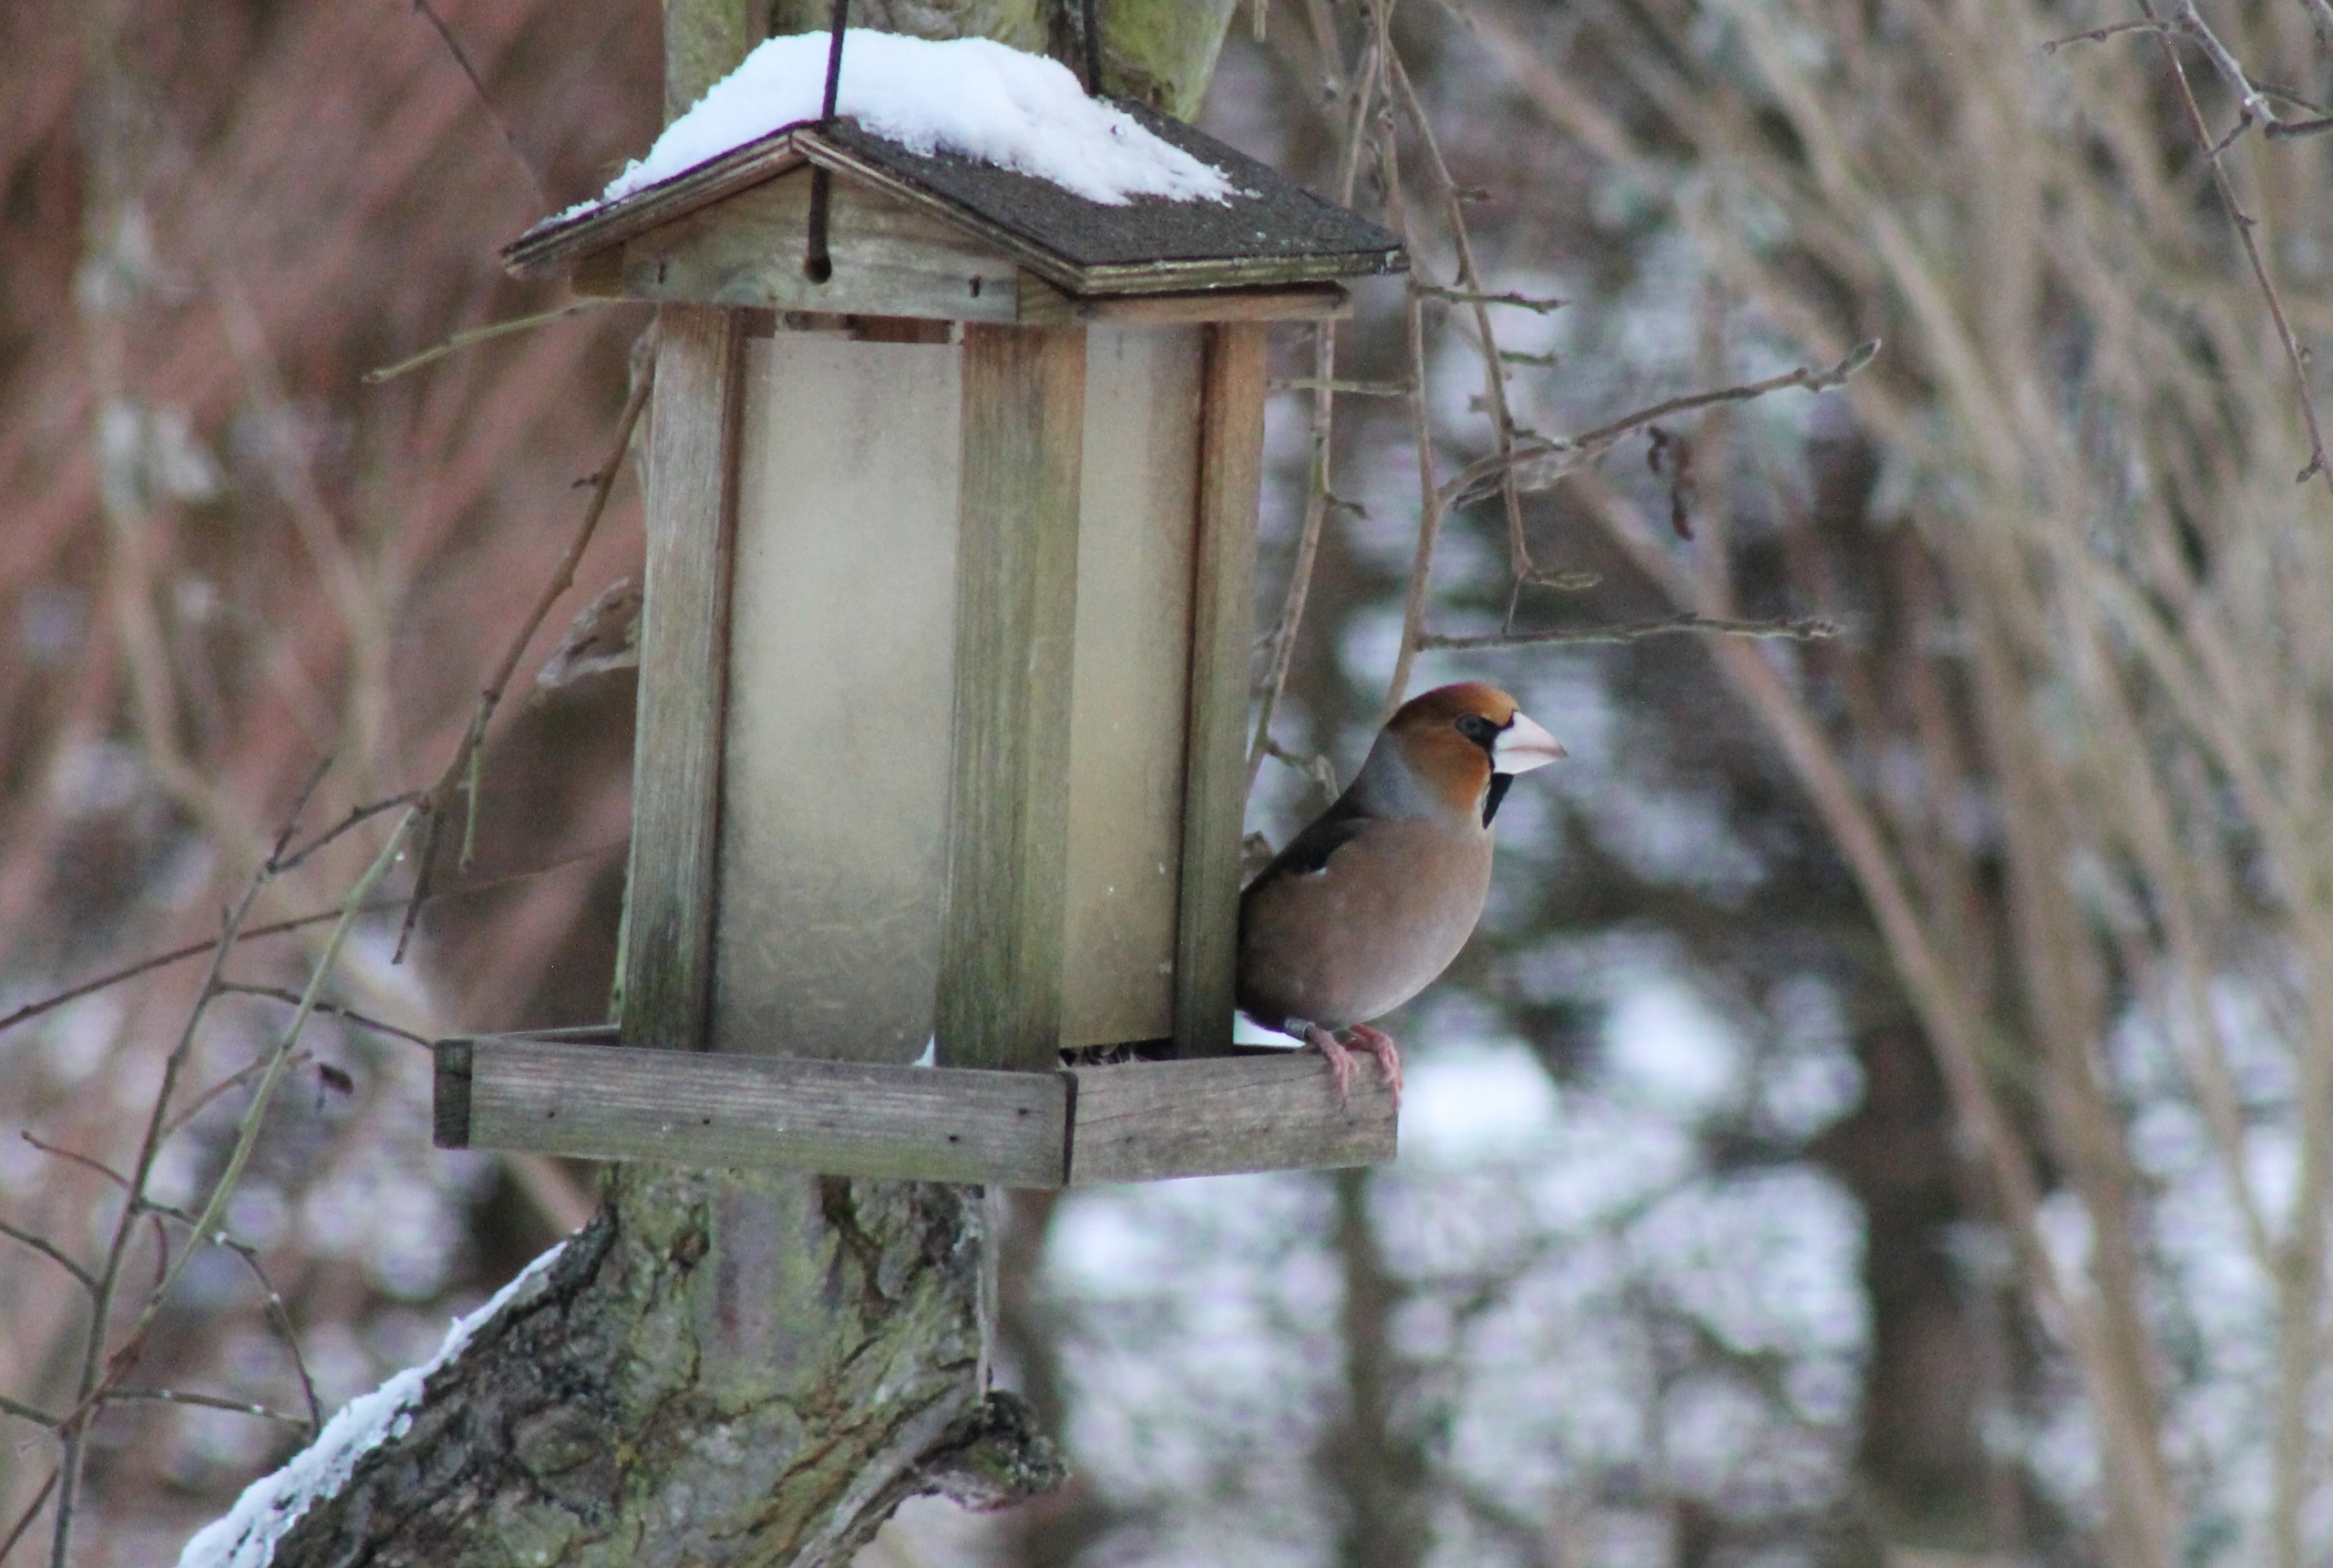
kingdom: Animalia
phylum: Chordata
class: Aves
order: Passeriformes
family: Fringillidae
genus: Coccothraustes
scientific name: Coccothraustes coccothraustes
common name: Kernebider
